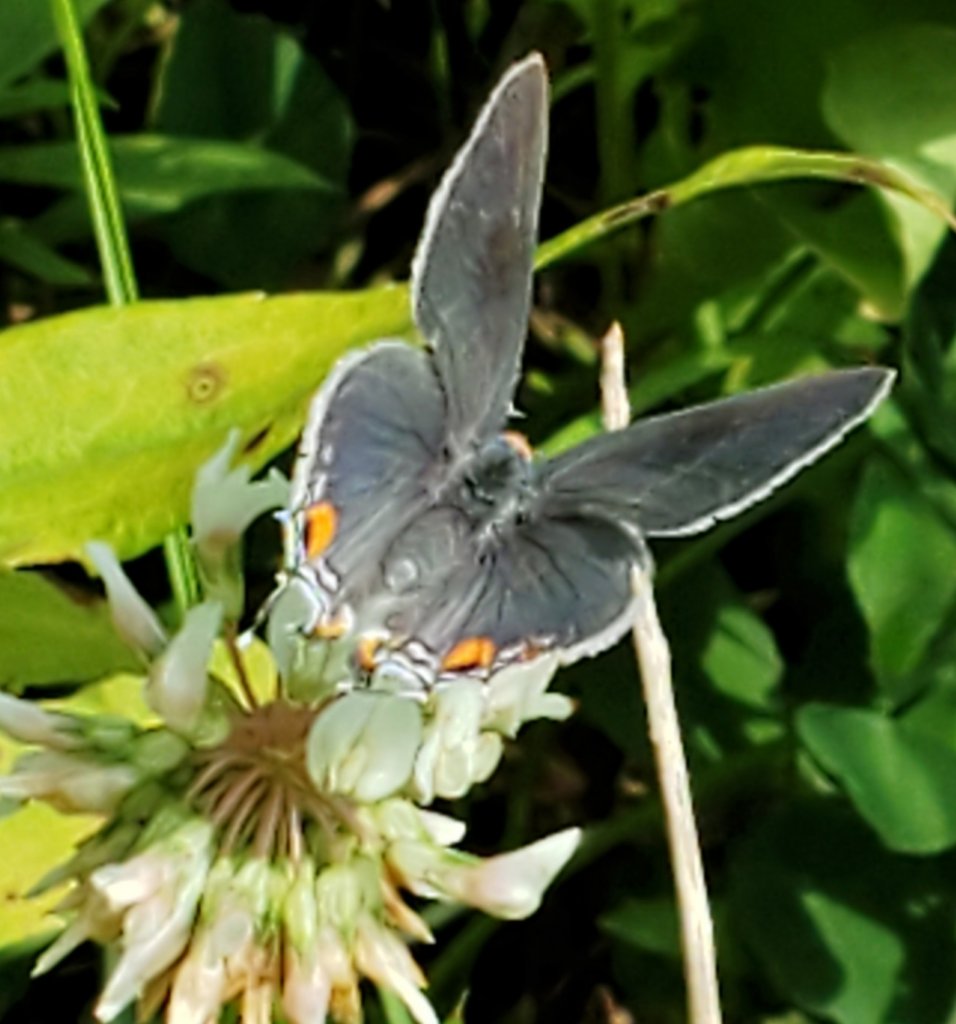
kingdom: Animalia
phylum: Arthropoda
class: Insecta
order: Lepidoptera
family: Lycaenidae
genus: Strymon
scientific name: Strymon melinus
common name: Gray Hairstreak
